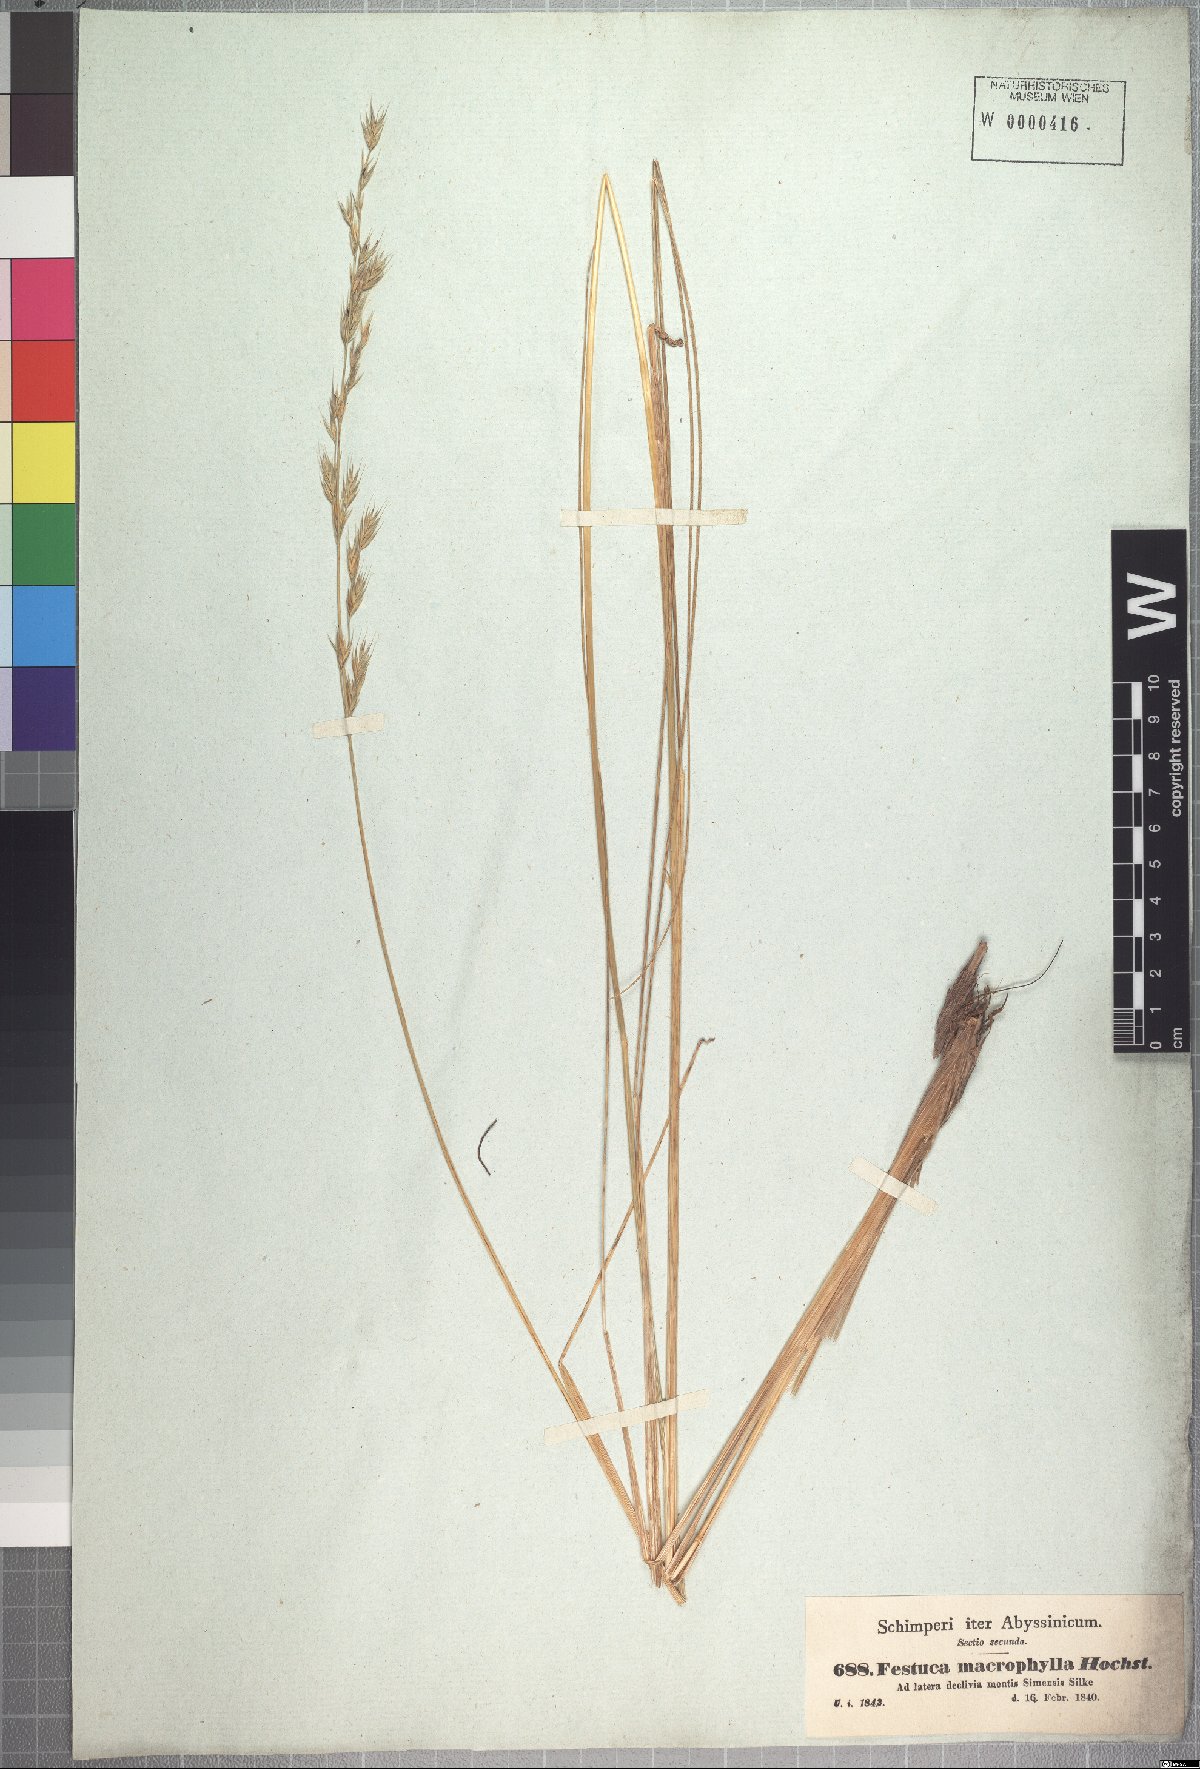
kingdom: Plantae
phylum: Tracheophyta
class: Liliopsida
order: Poales
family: Poaceae
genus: Festuca
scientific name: Festuca macrophylla
